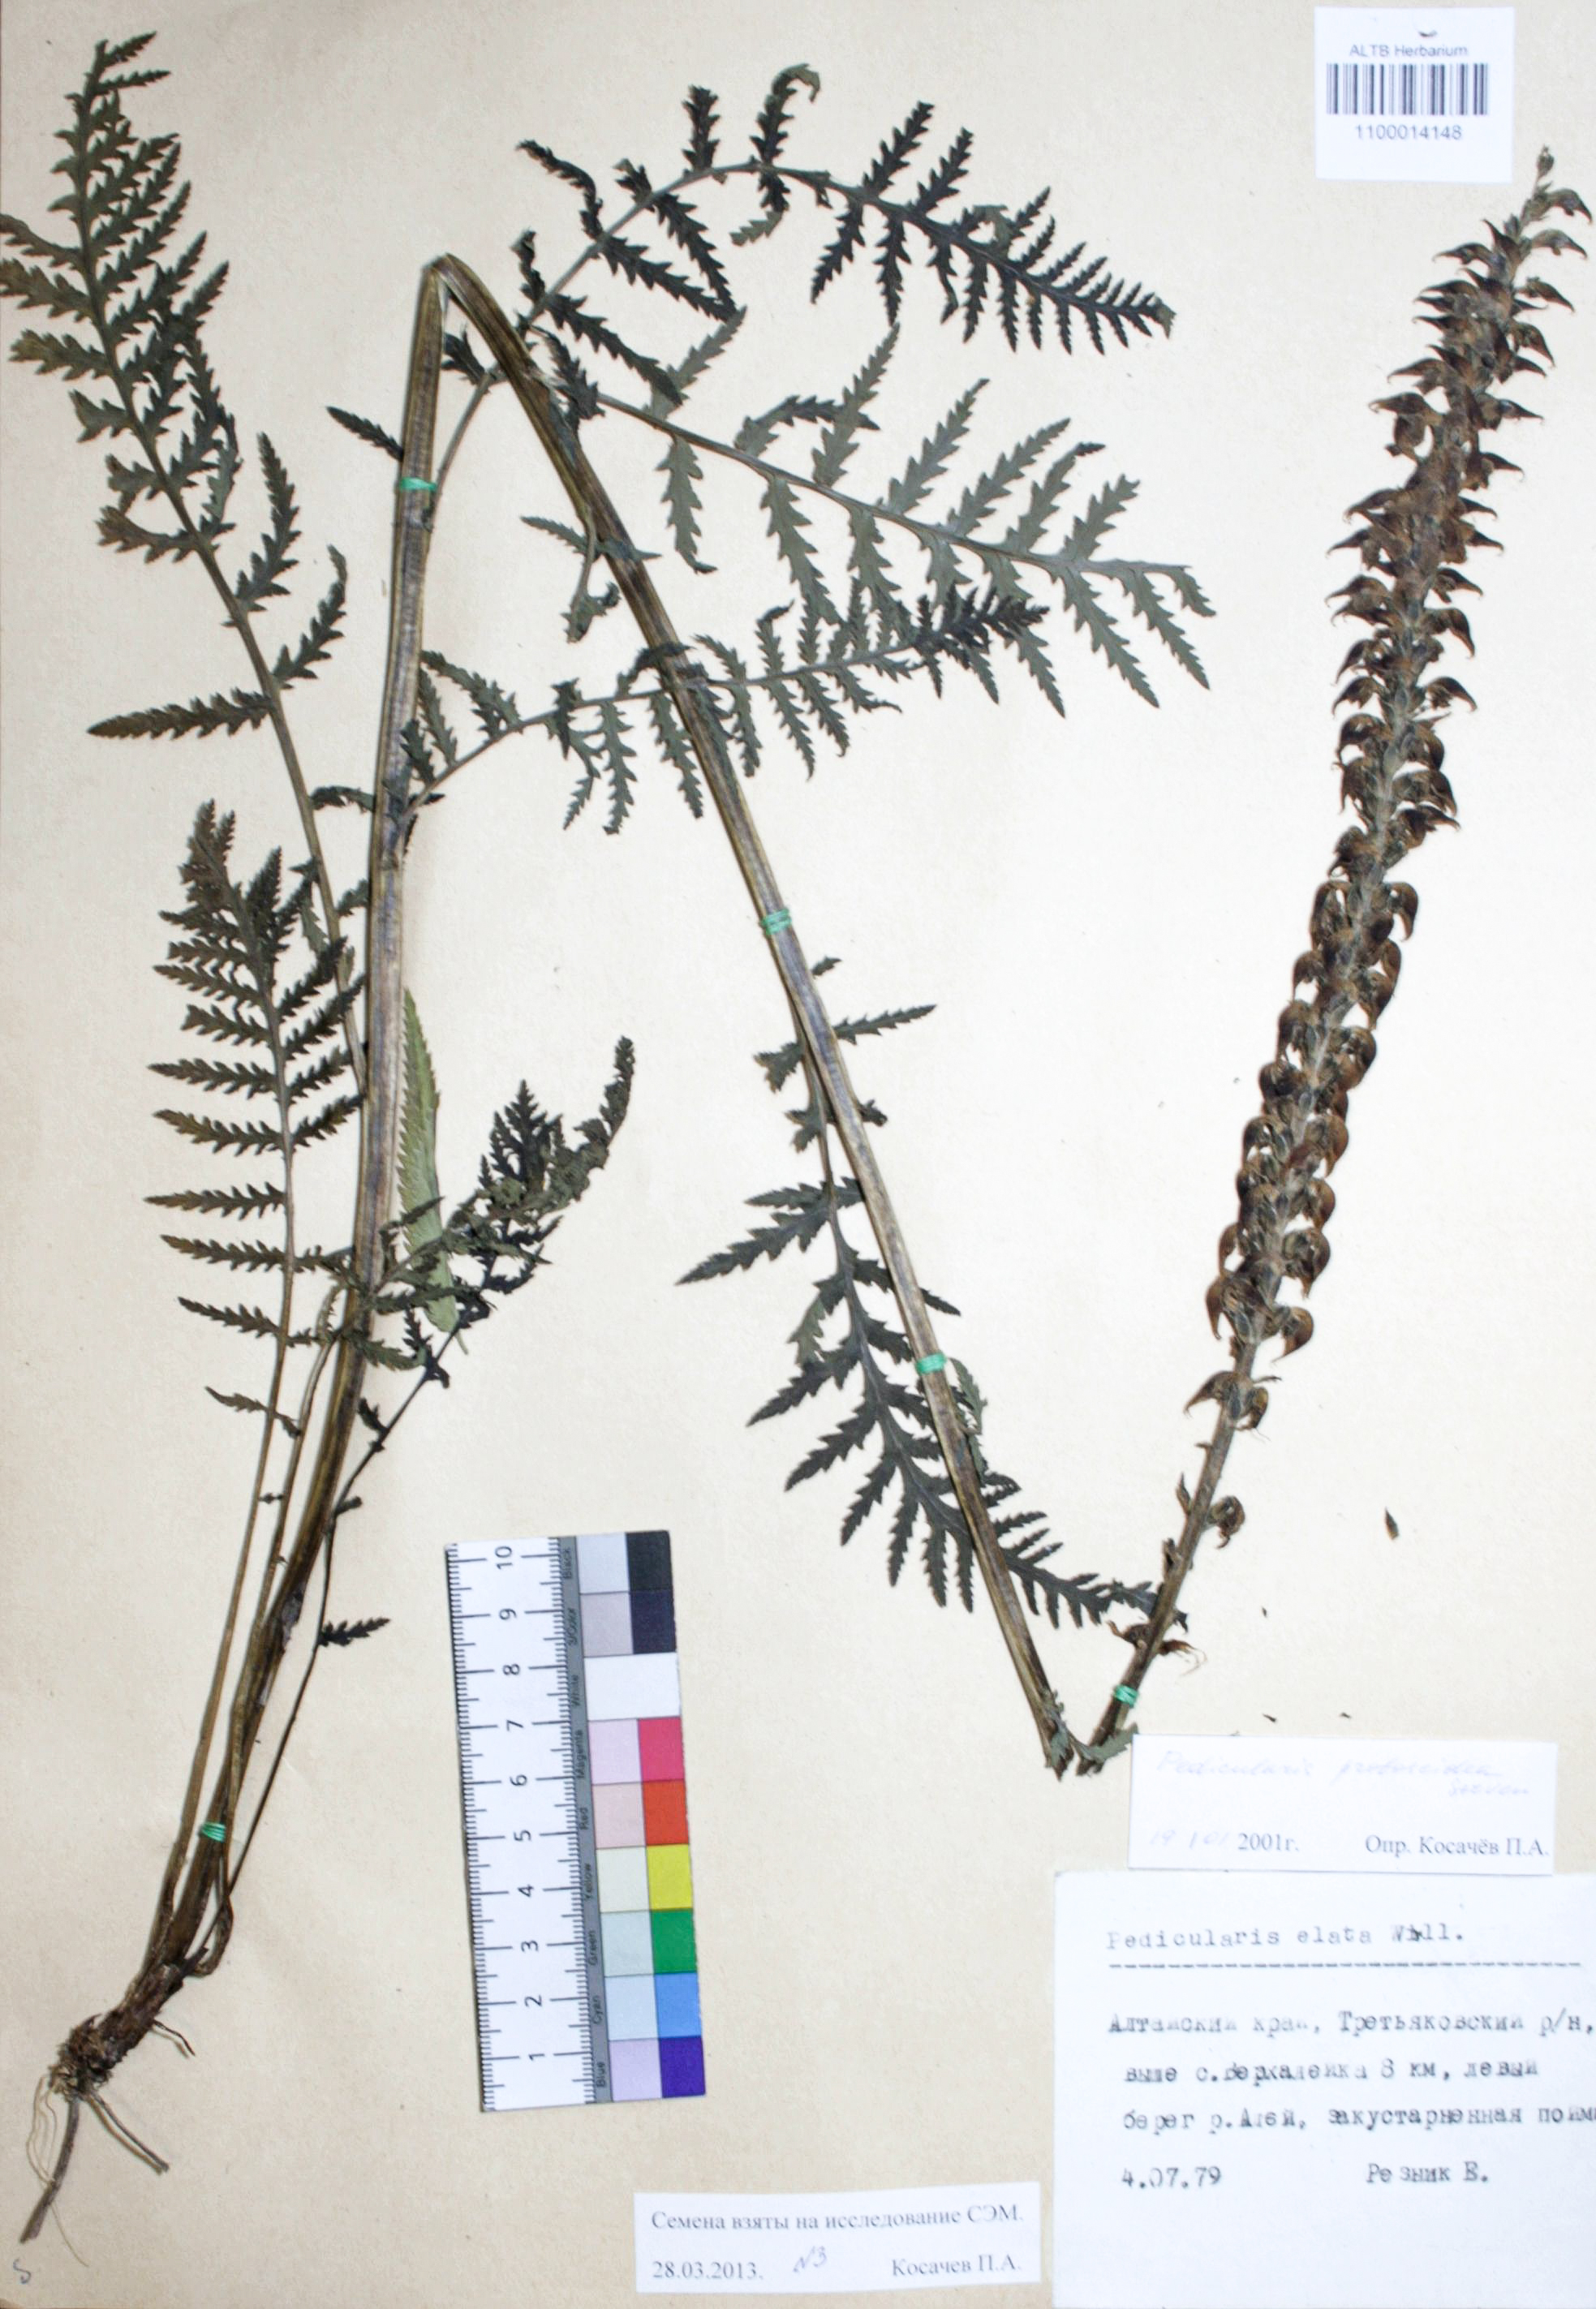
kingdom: Plantae
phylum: Tracheophyta
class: Magnoliopsida
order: Lamiales
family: Orobanchaceae
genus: Pedicularis
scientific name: Pedicularis proboscidea
